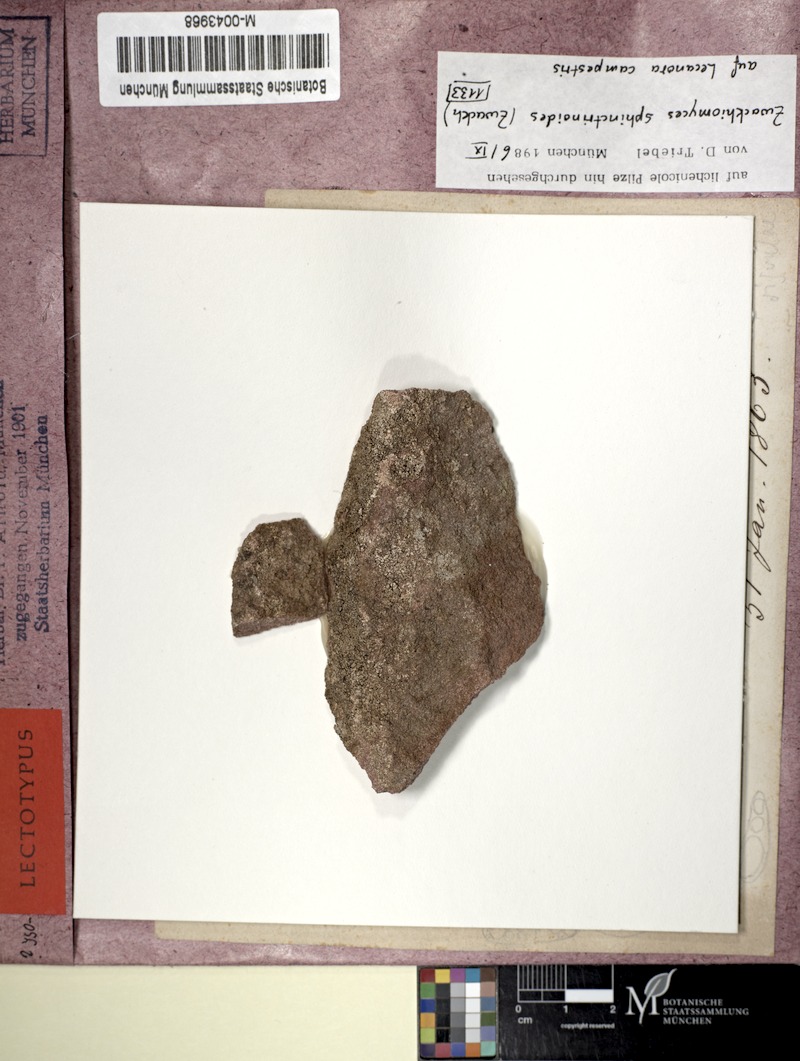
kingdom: Fungi
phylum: Ascomycota
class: Dothideomycetes
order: Collemopsidiales
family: Xanthopyreniaceae
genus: Zwackhiomyces
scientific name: Zwackhiomyces sphinctrinoides
